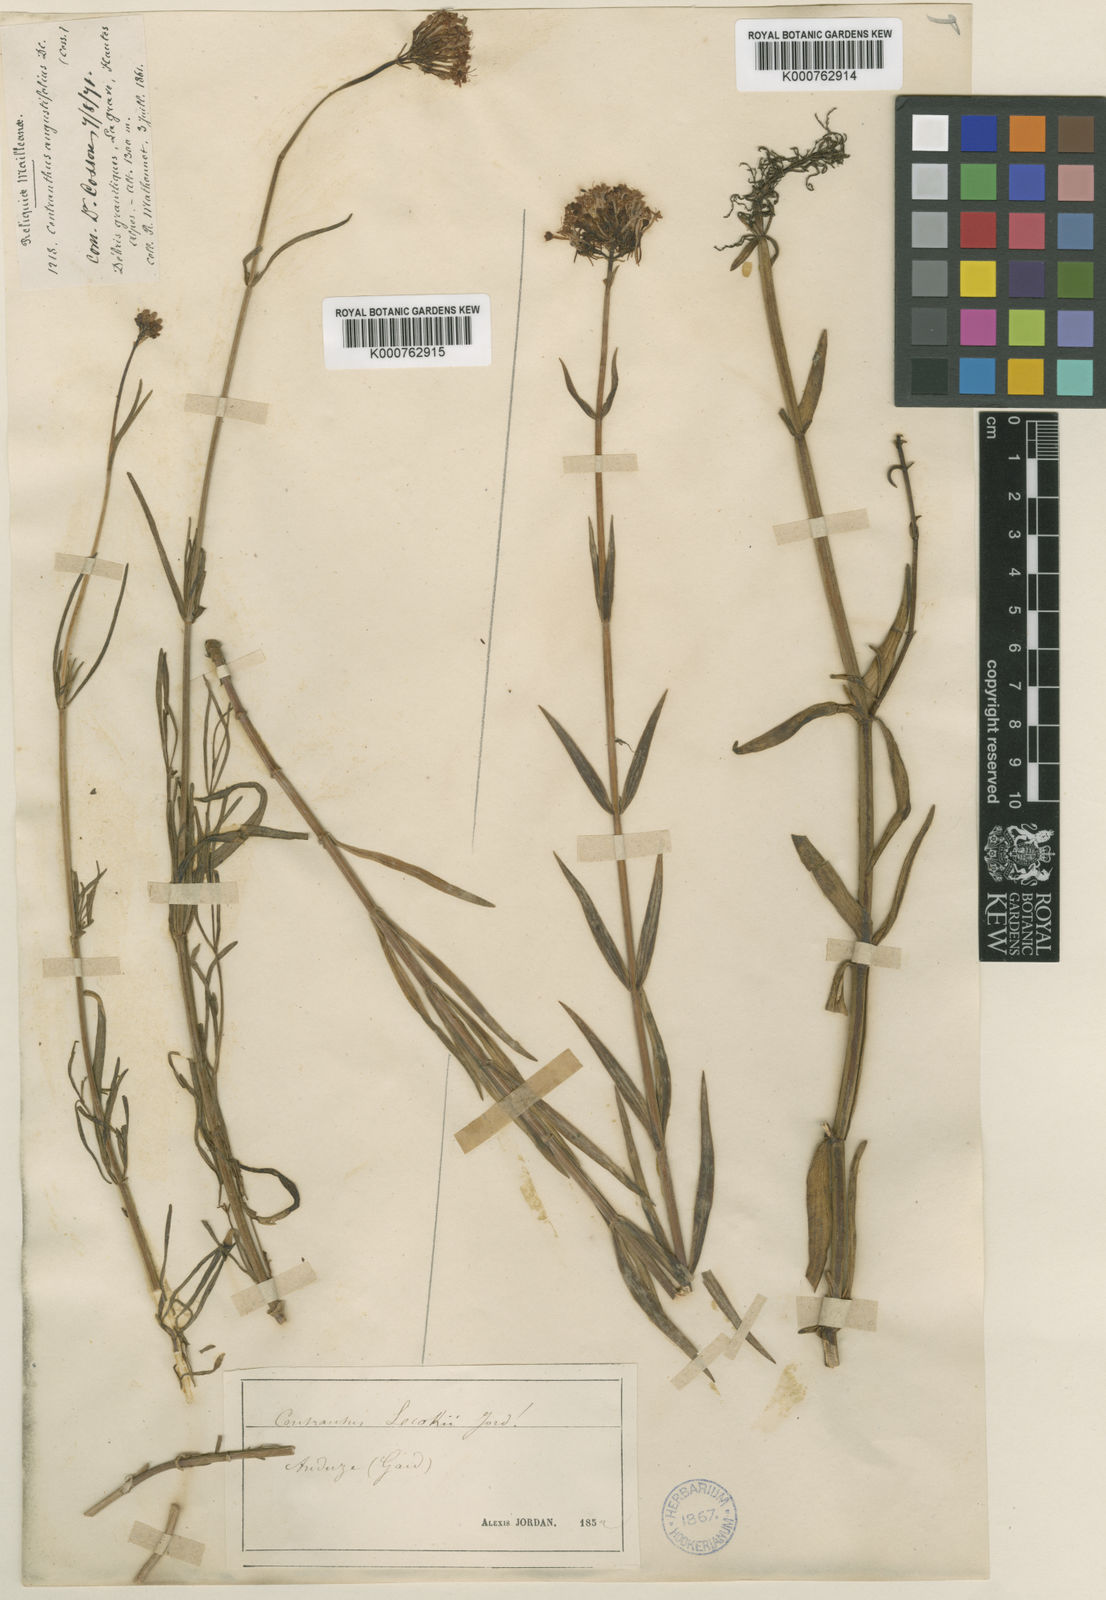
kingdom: Plantae
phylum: Tracheophyta
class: Magnoliopsida
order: Dipsacales
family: Caprifoliaceae
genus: Centranthus
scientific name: Centranthus lecoqii
